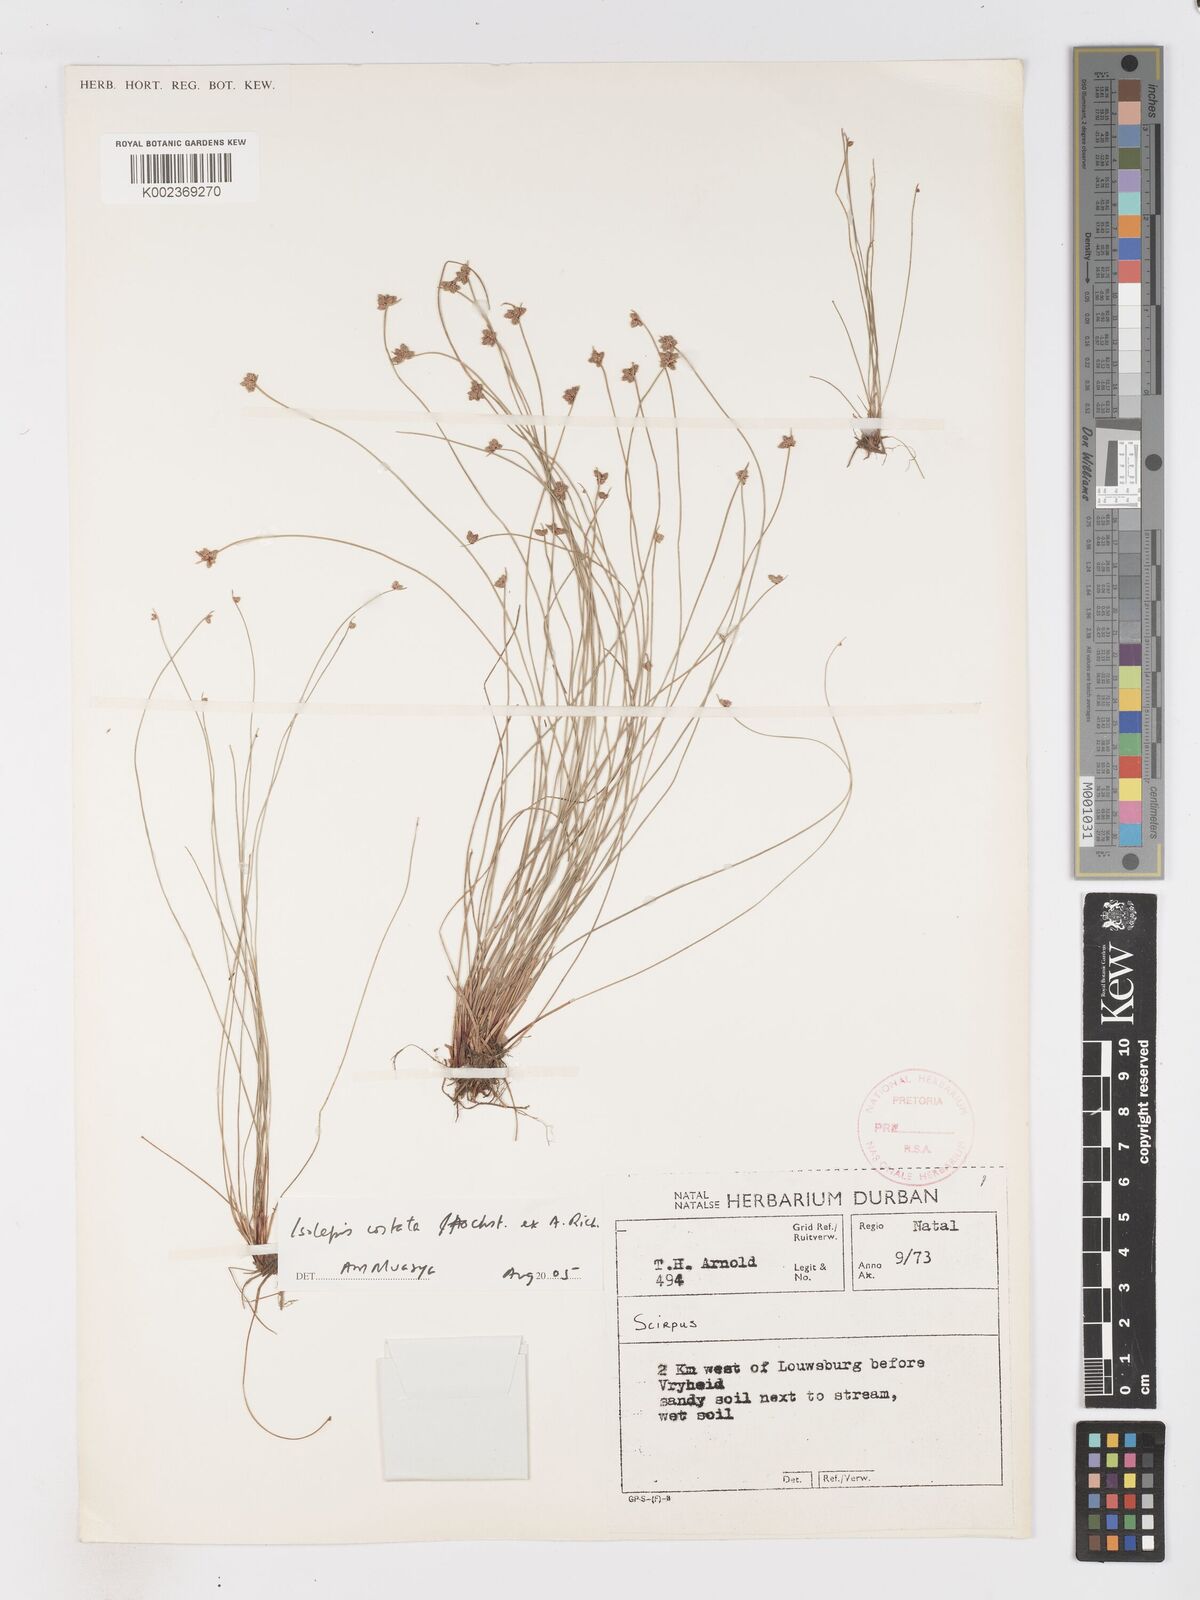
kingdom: Plantae
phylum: Tracheophyta
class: Liliopsida
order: Poales
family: Cyperaceae
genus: Isolepis
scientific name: Isolepis costata
